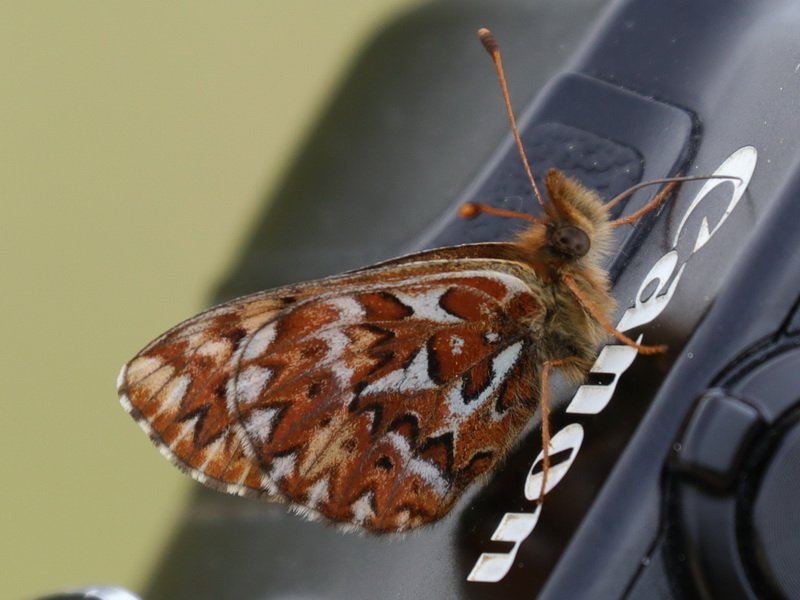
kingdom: Animalia
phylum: Arthropoda
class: Insecta
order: Lepidoptera
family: Nymphalidae
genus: Boloria
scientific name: Boloria freija
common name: Freija Fritillary
